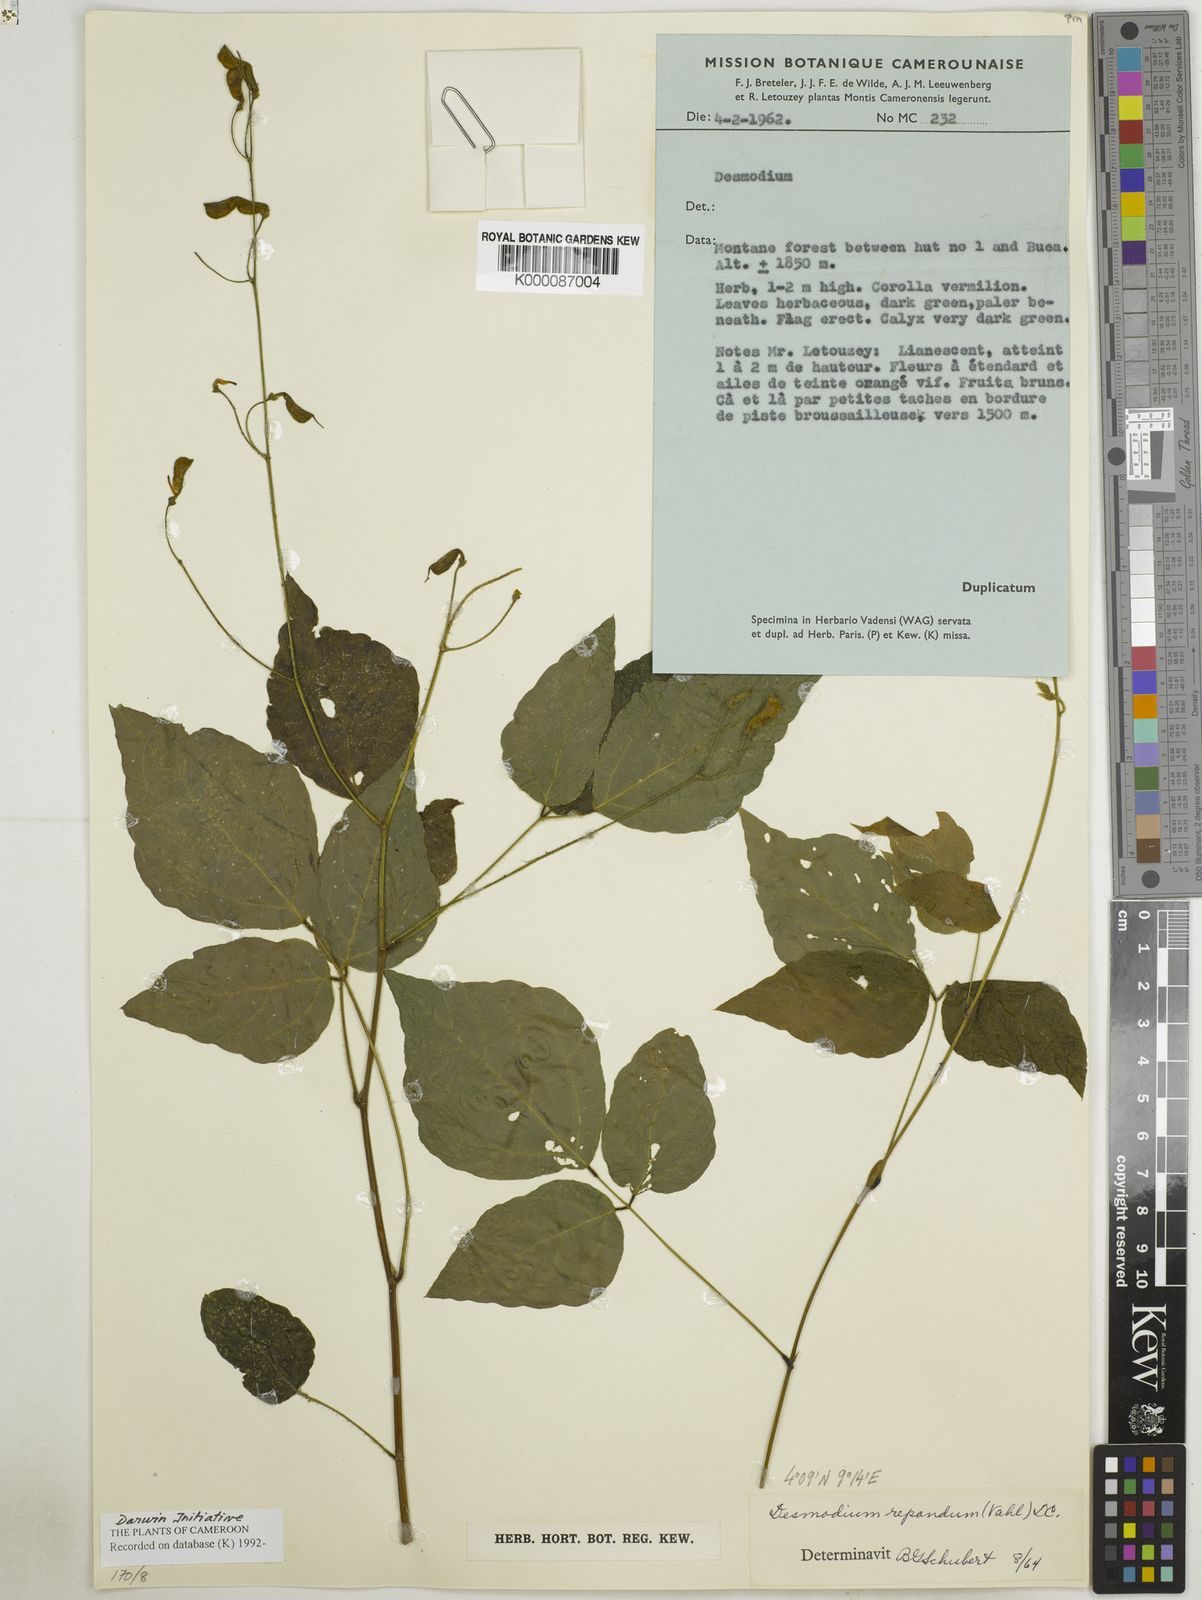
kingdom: Plantae
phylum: Tracheophyta
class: Magnoliopsida
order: Fabales
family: Fabaceae
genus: Desmodium
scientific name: Desmodium
